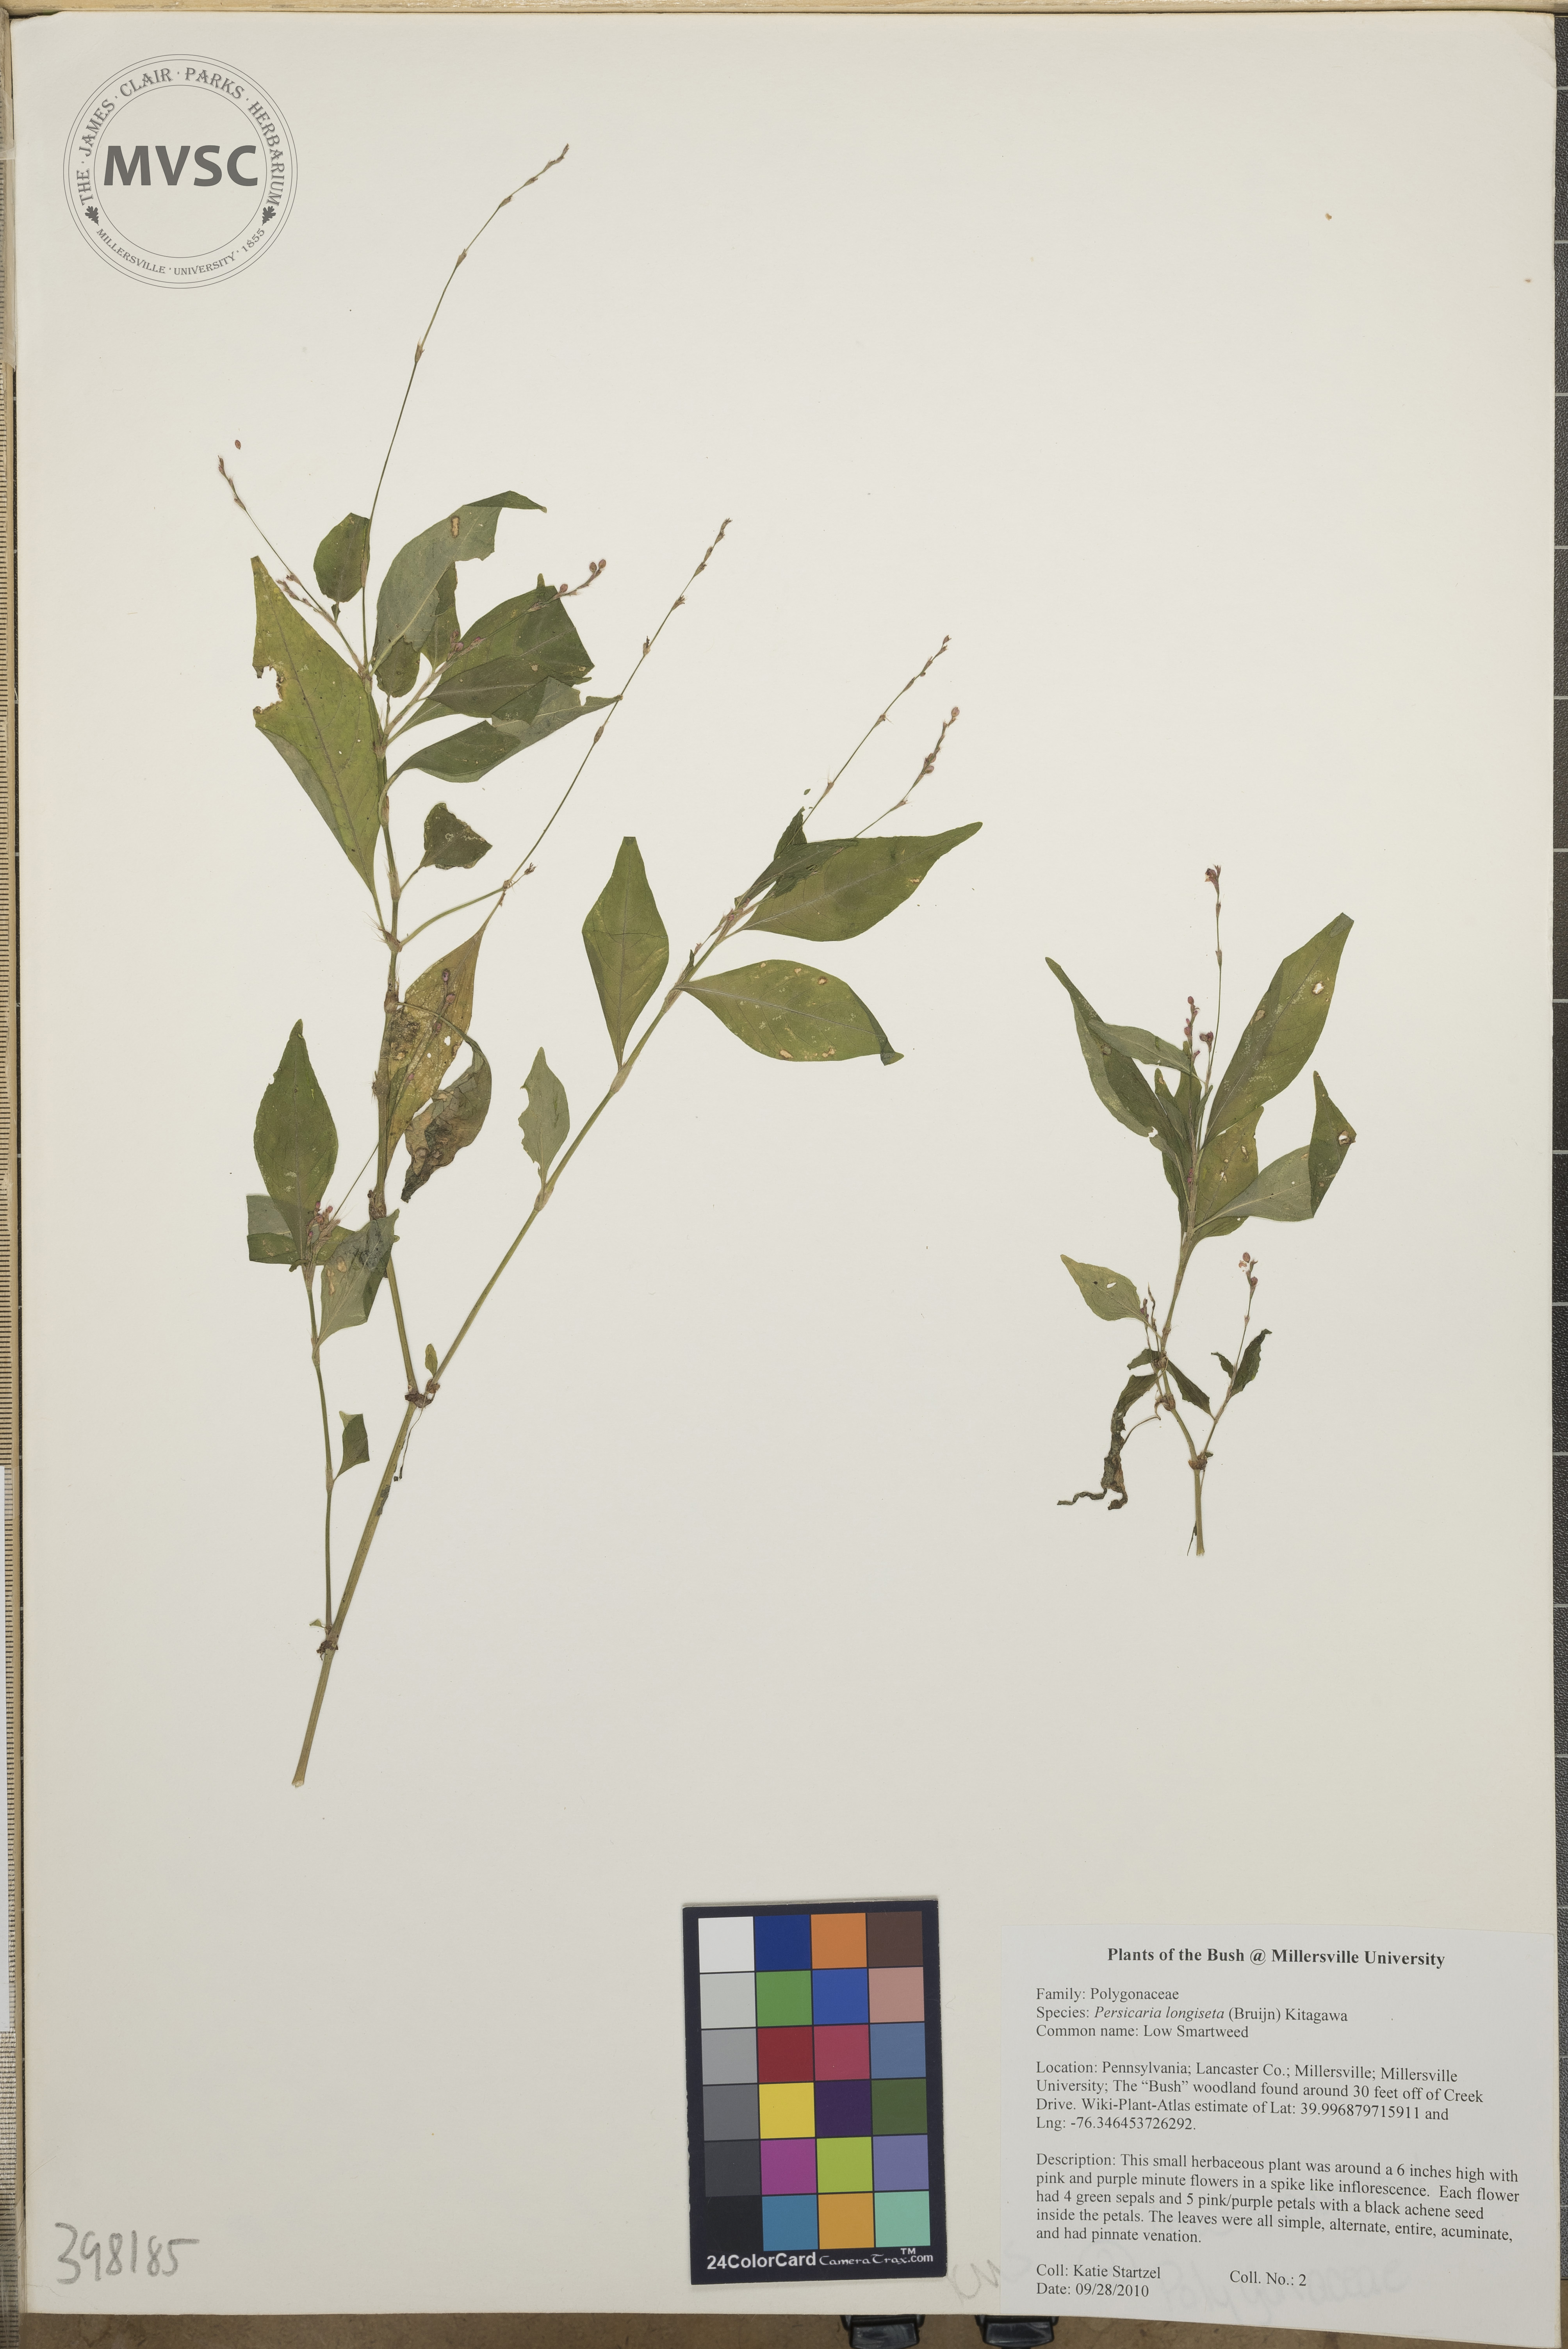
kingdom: Plantae
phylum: Tracheophyta
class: Magnoliopsida
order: Caryophyllales
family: Polygonaceae
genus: Persicaria
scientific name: Persicaria longiseta
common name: Low smartweed
